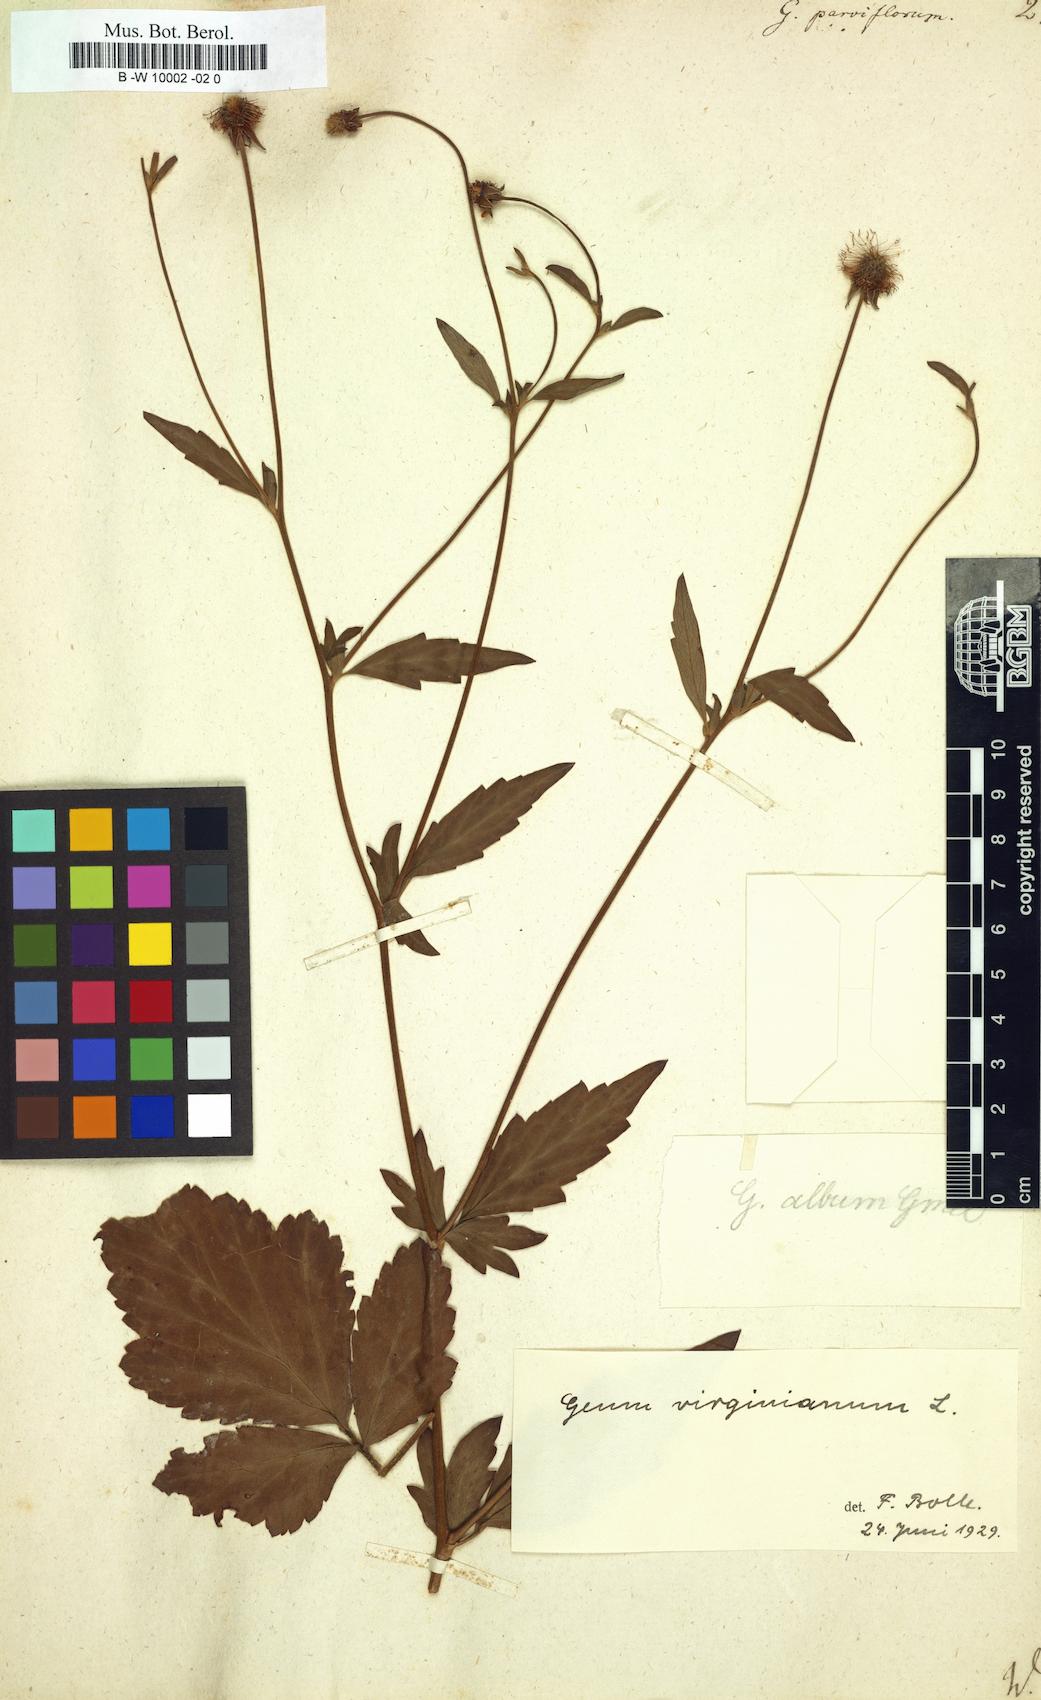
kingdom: Plantae
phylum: Tracheophyta
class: Magnoliopsida
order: Rosales
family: Rosaceae
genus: Geum
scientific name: Geum
